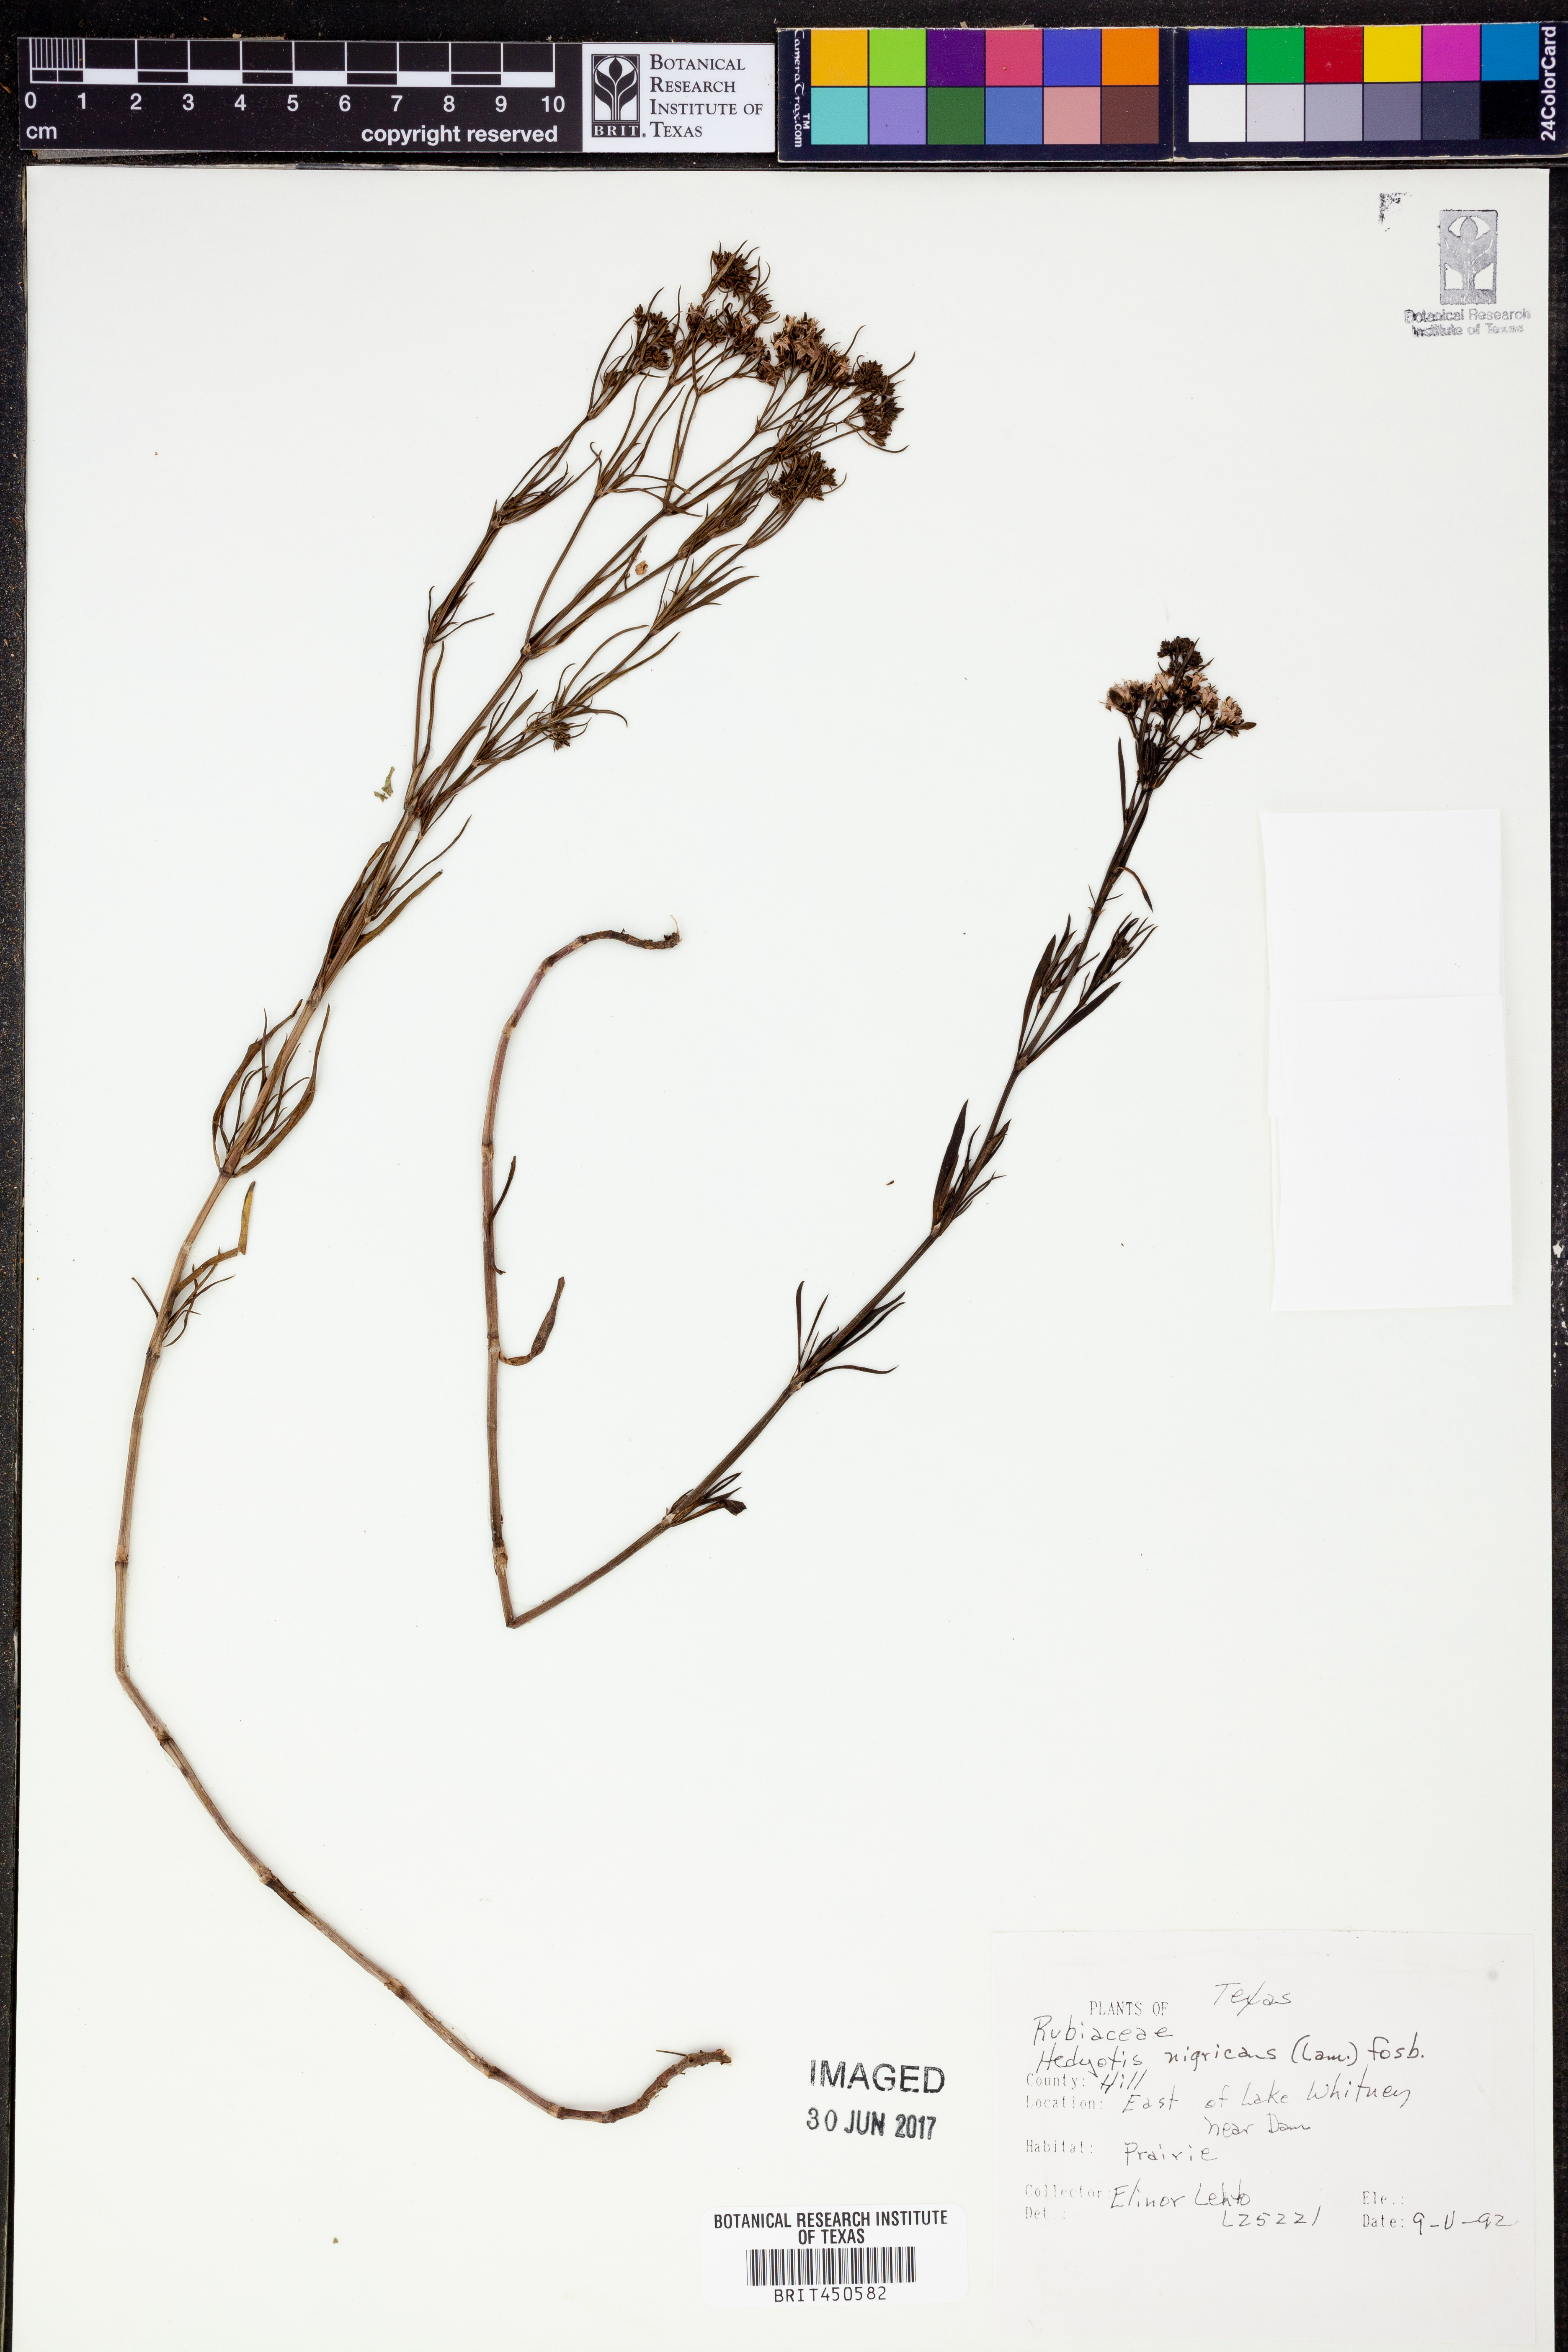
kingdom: Plantae
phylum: Tracheophyta
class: Magnoliopsida
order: Gentianales
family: Rubiaceae
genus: Stenaria
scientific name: Stenaria nigricans
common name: Diamondflowers
